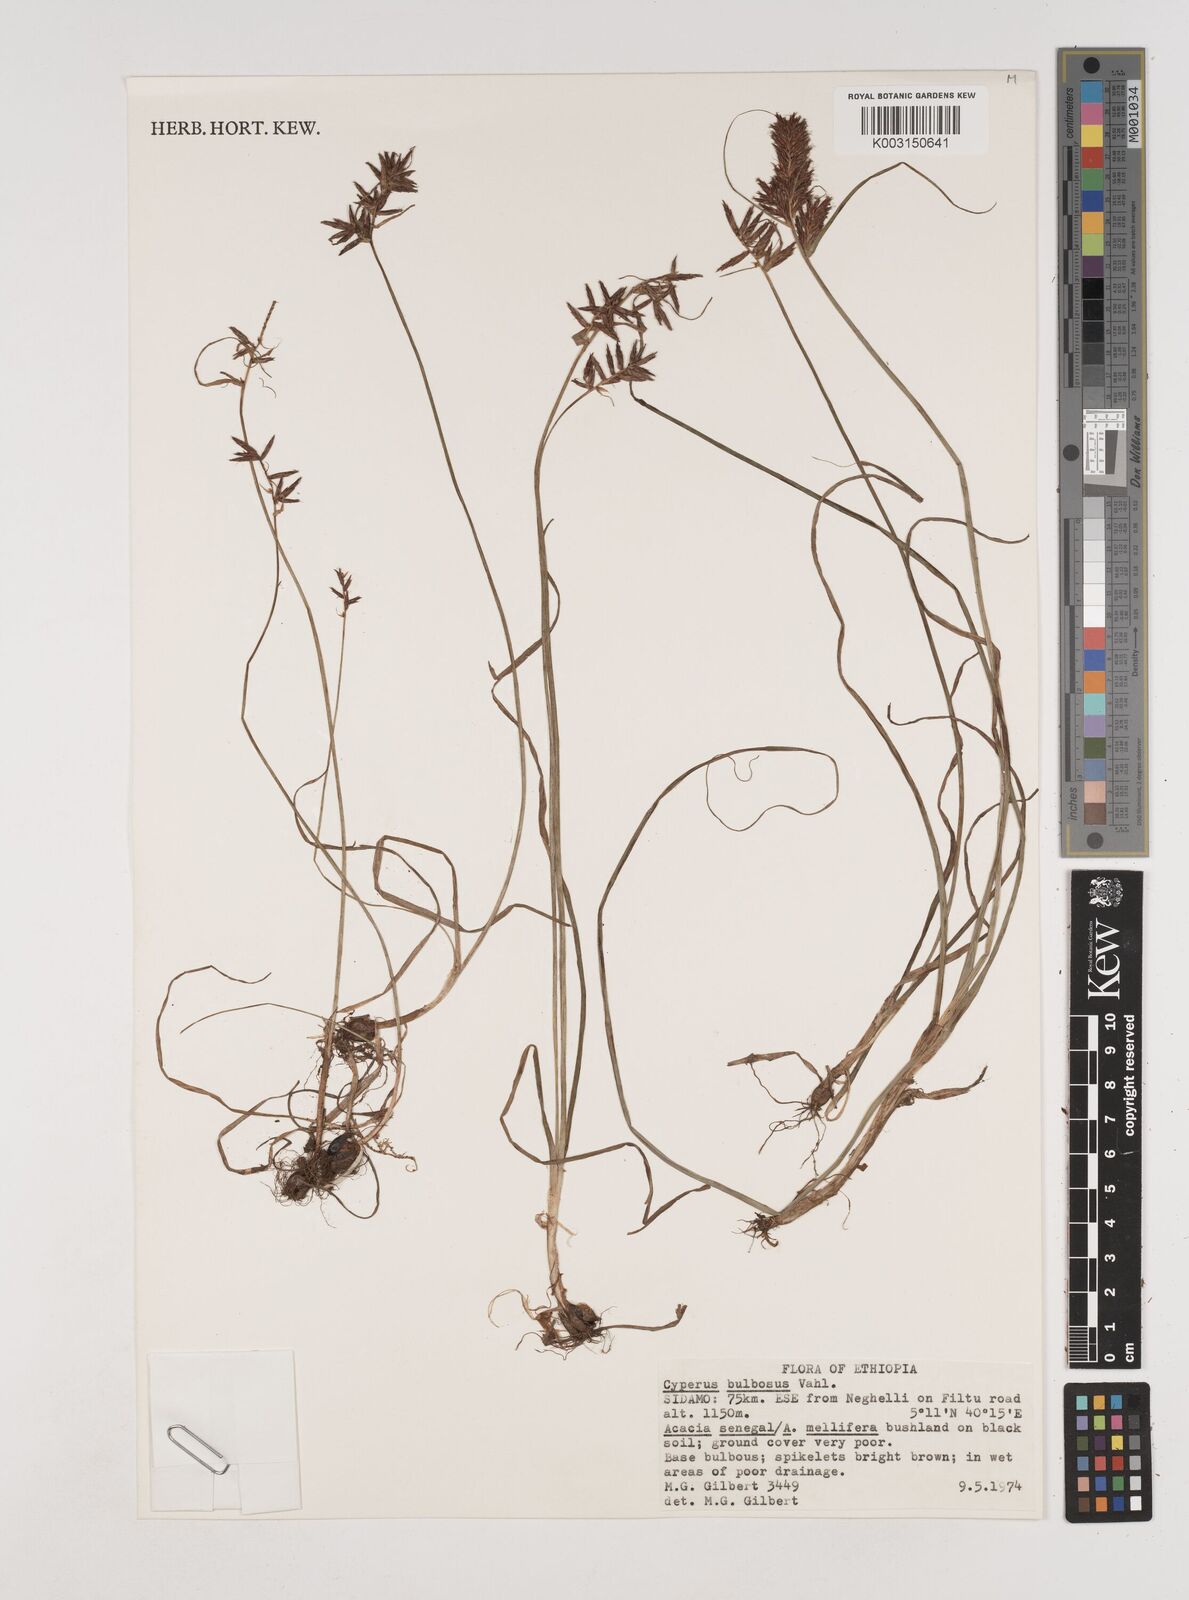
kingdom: Plantae
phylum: Tracheophyta
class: Liliopsida
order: Poales
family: Cyperaceae
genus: Cyperus
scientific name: Cyperus bulbosus
